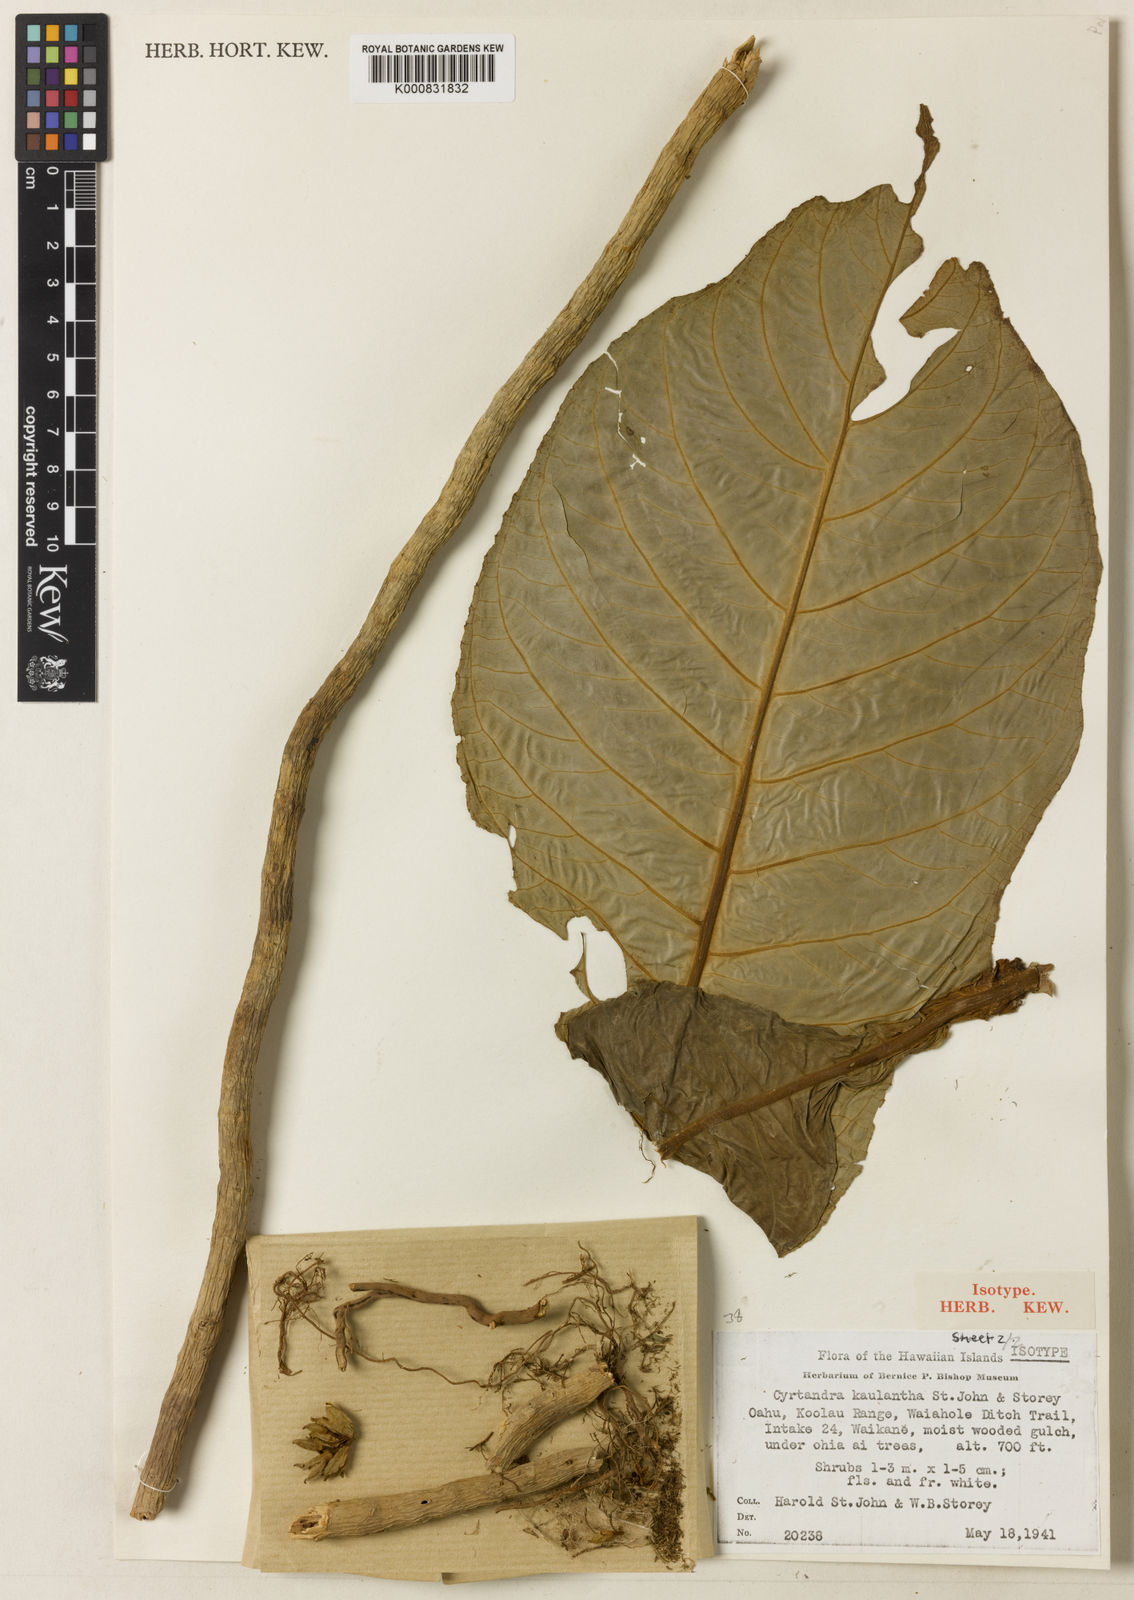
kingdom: Plantae
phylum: Tracheophyta
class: Magnoliopsida
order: Lamiales
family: Gesneriaceae
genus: Cyrtandra
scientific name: Cyrtandra kaulantha
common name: Waikane valley cyrtandra
